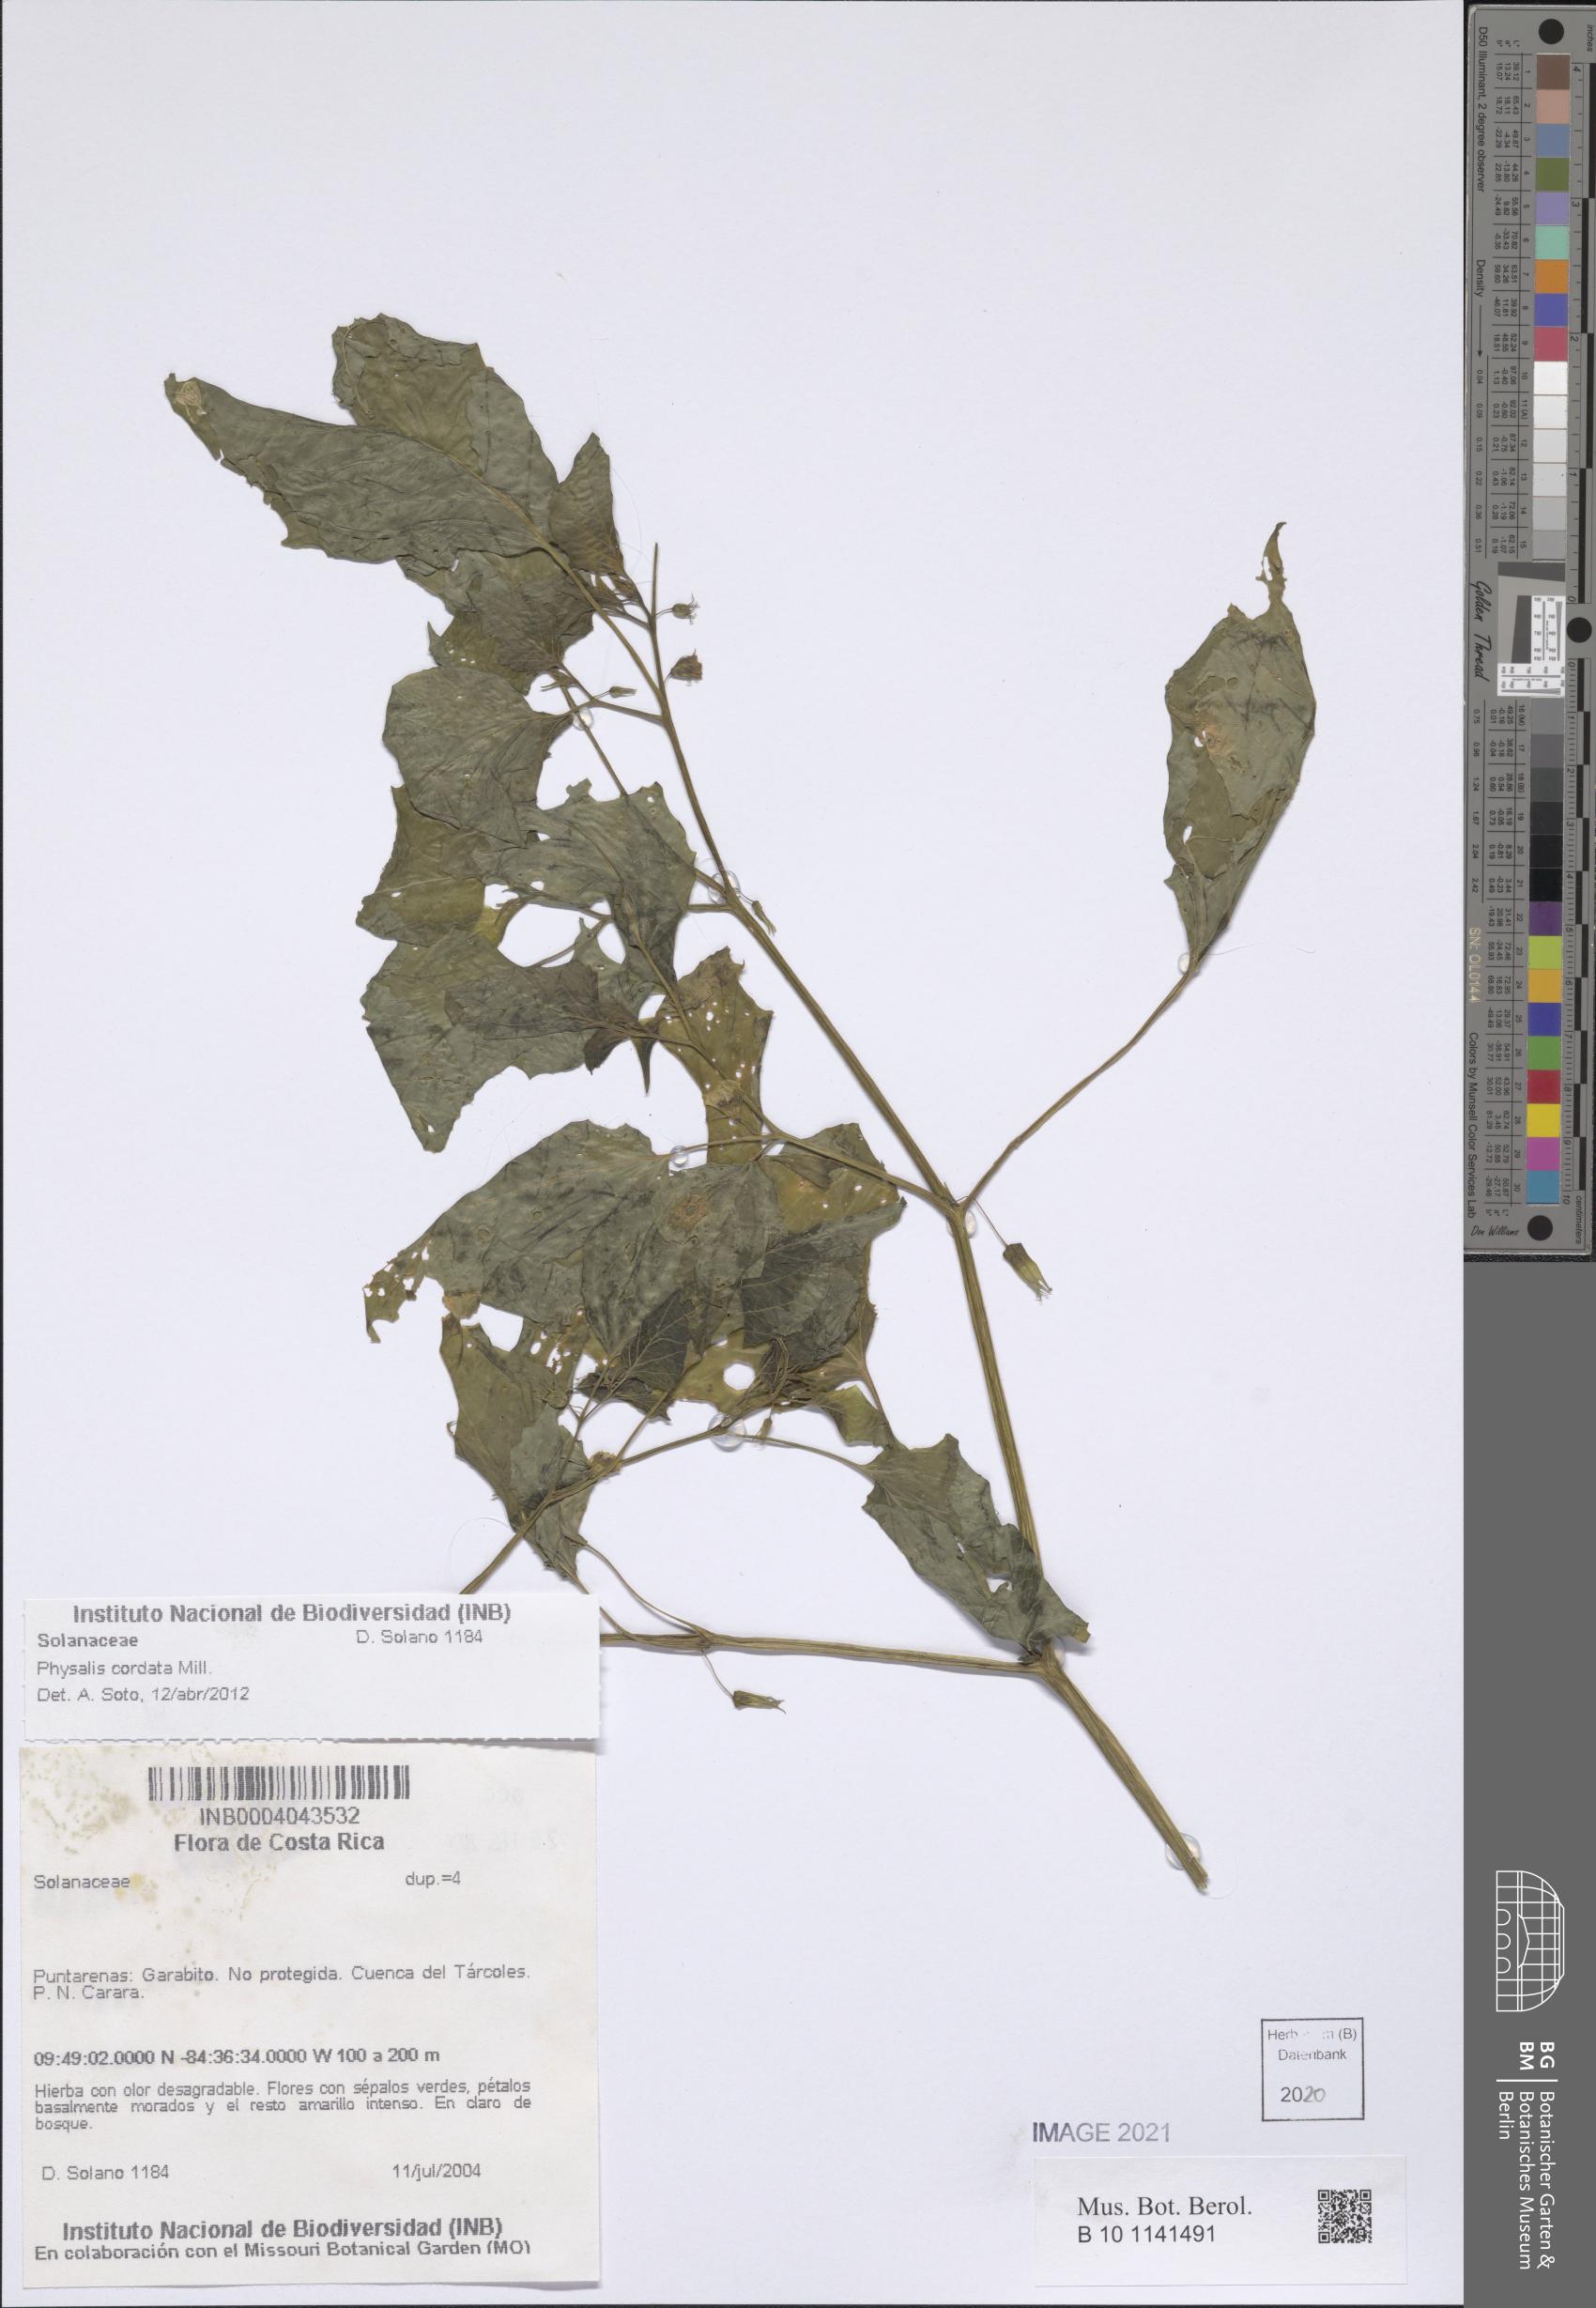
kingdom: Plantae
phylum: Tracheophyta
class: Magnoliopsida
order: Solanales
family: Solanaceae
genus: Physalis
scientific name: Physalis cordata
